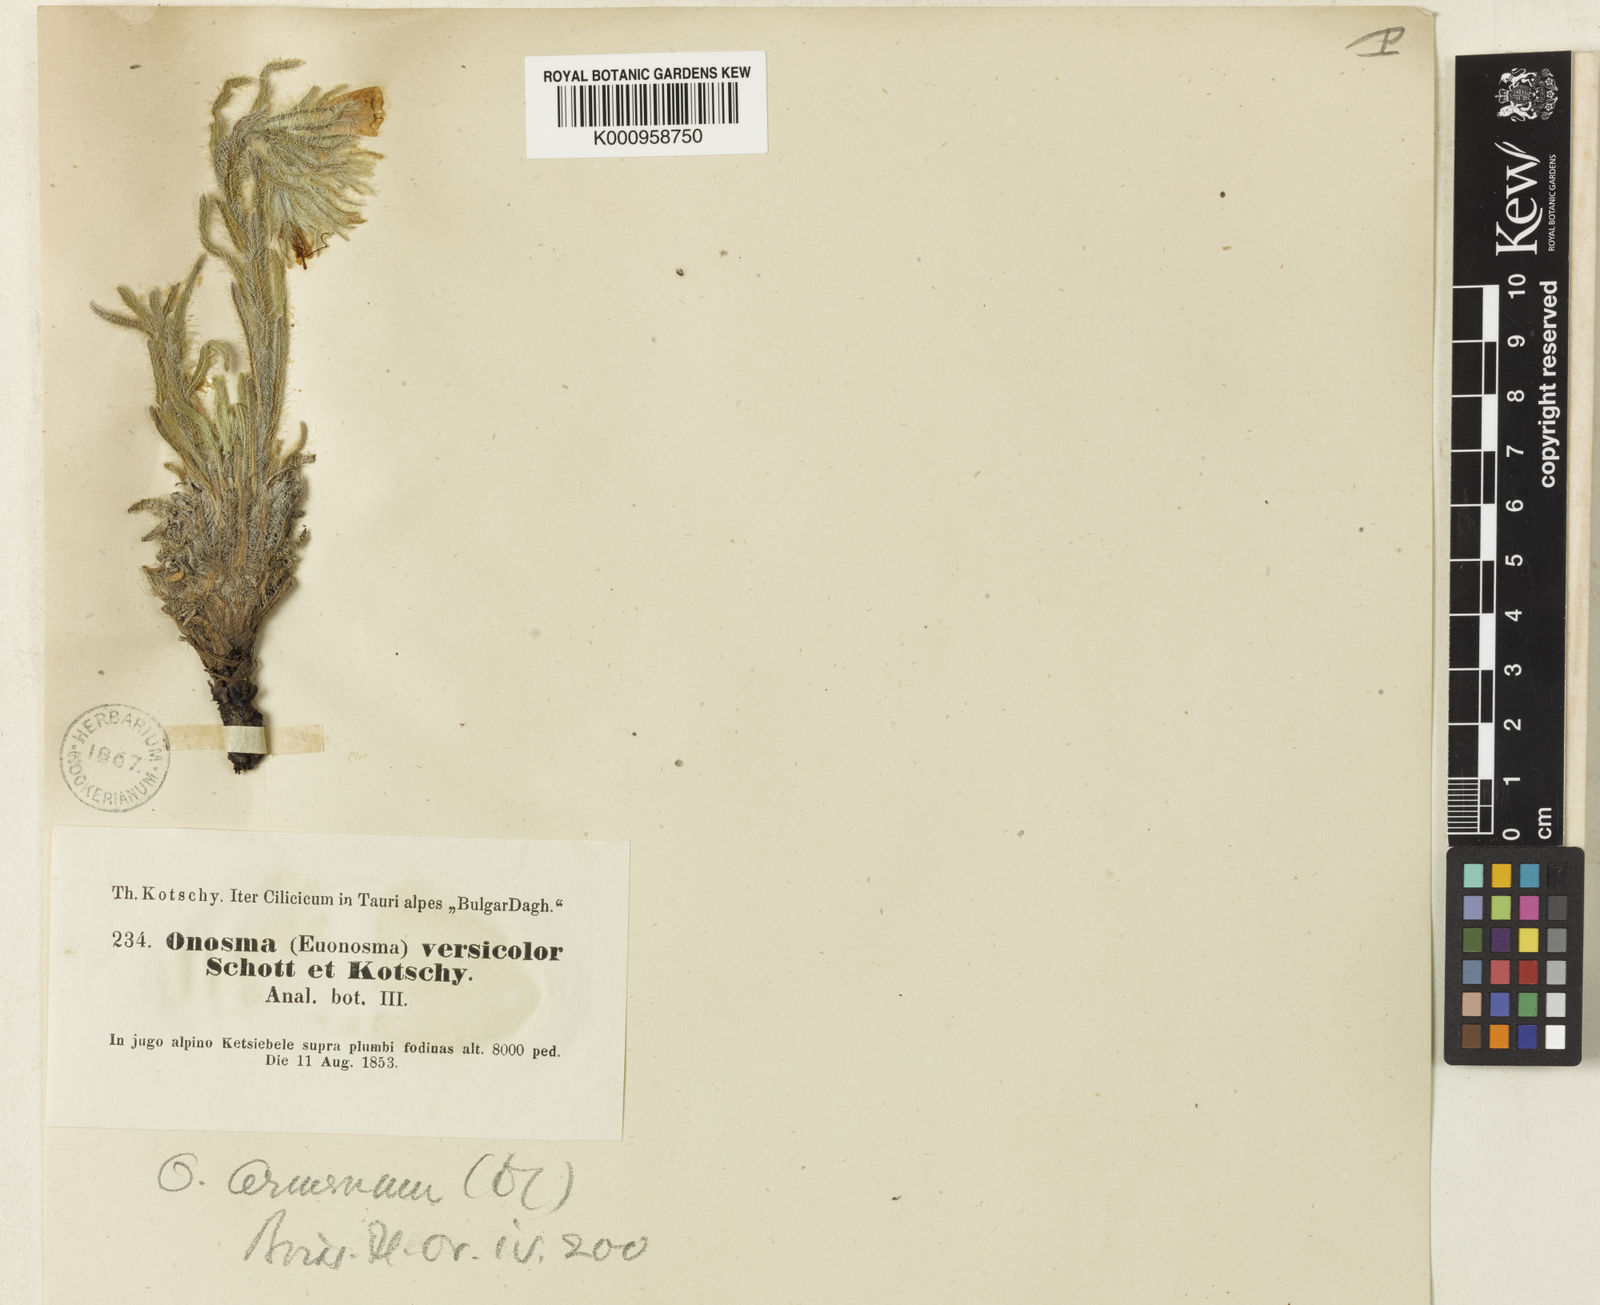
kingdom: Plantae
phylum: Tracheophyta
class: Magnoliopsida
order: Boraginales
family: Boraginaceae
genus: Onosma
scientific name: Onosma armena
